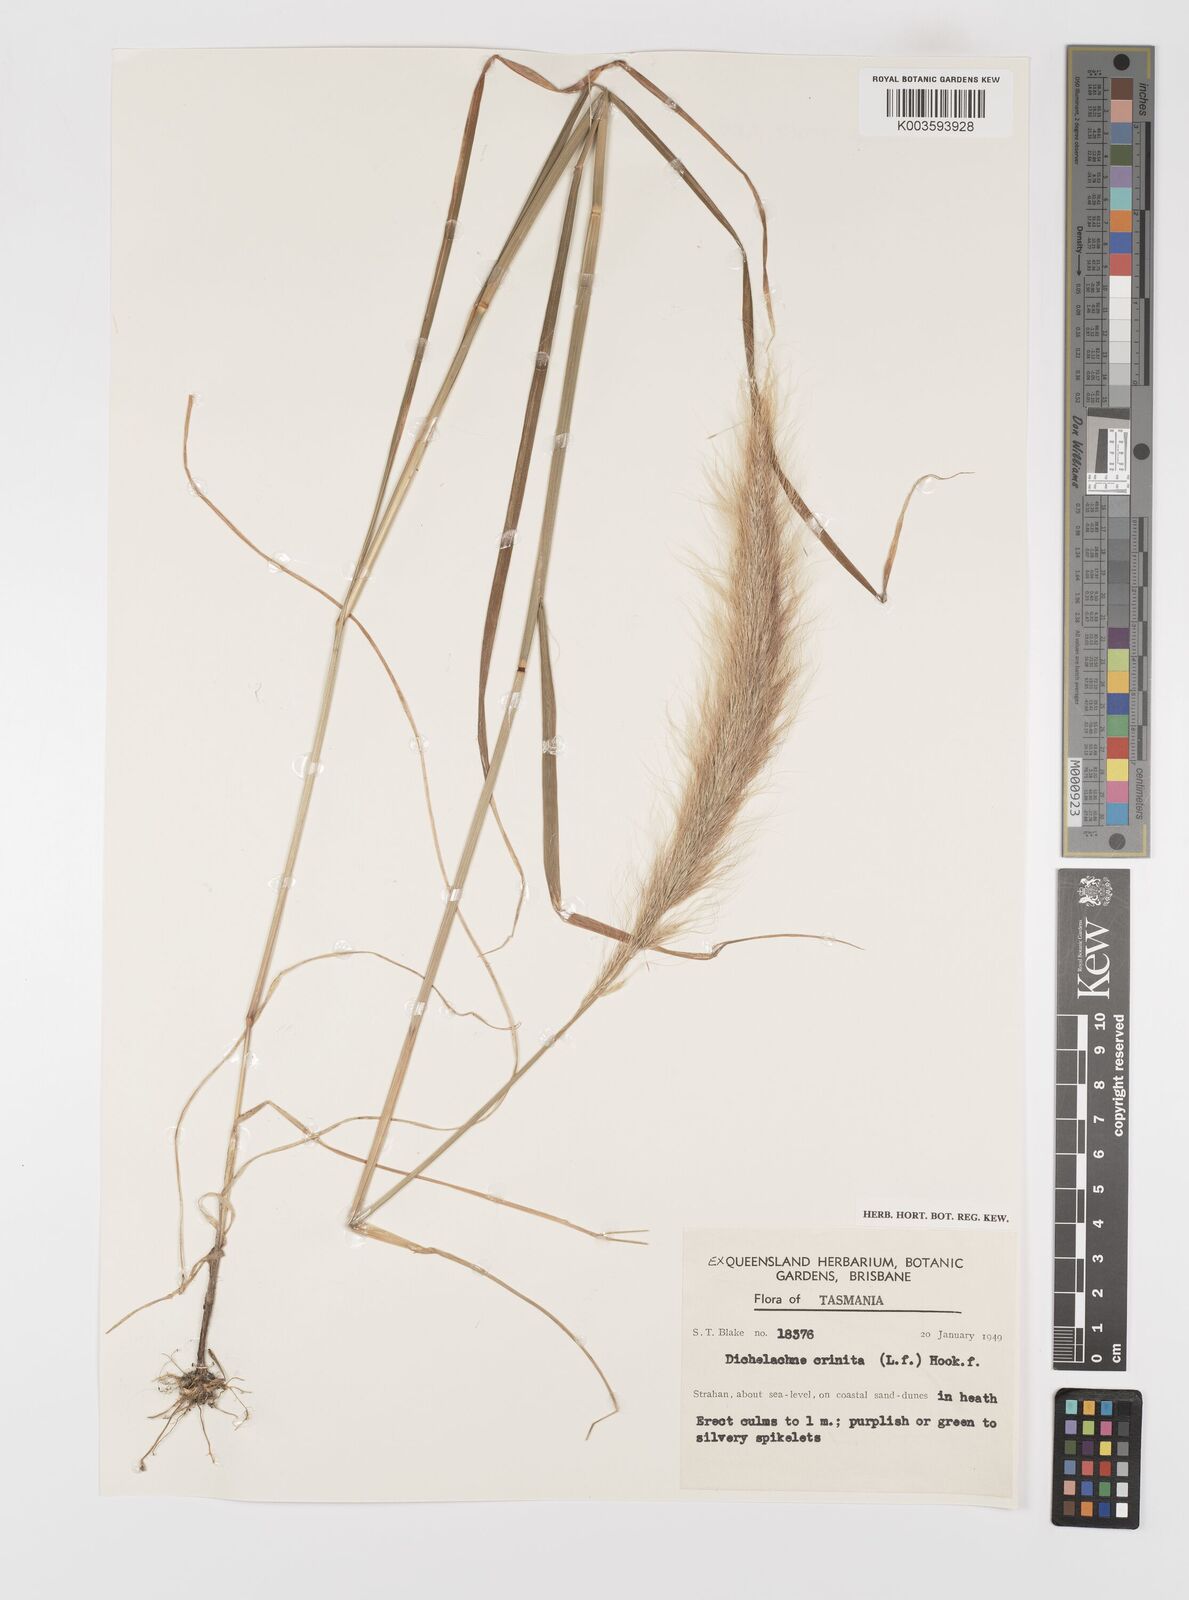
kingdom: Plantae
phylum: Tracheophyta
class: Liliopsida
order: Poales
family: Poaceae
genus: Dichelachne
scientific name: Dichelachne crinita
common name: Clovenfoot plumegrass
